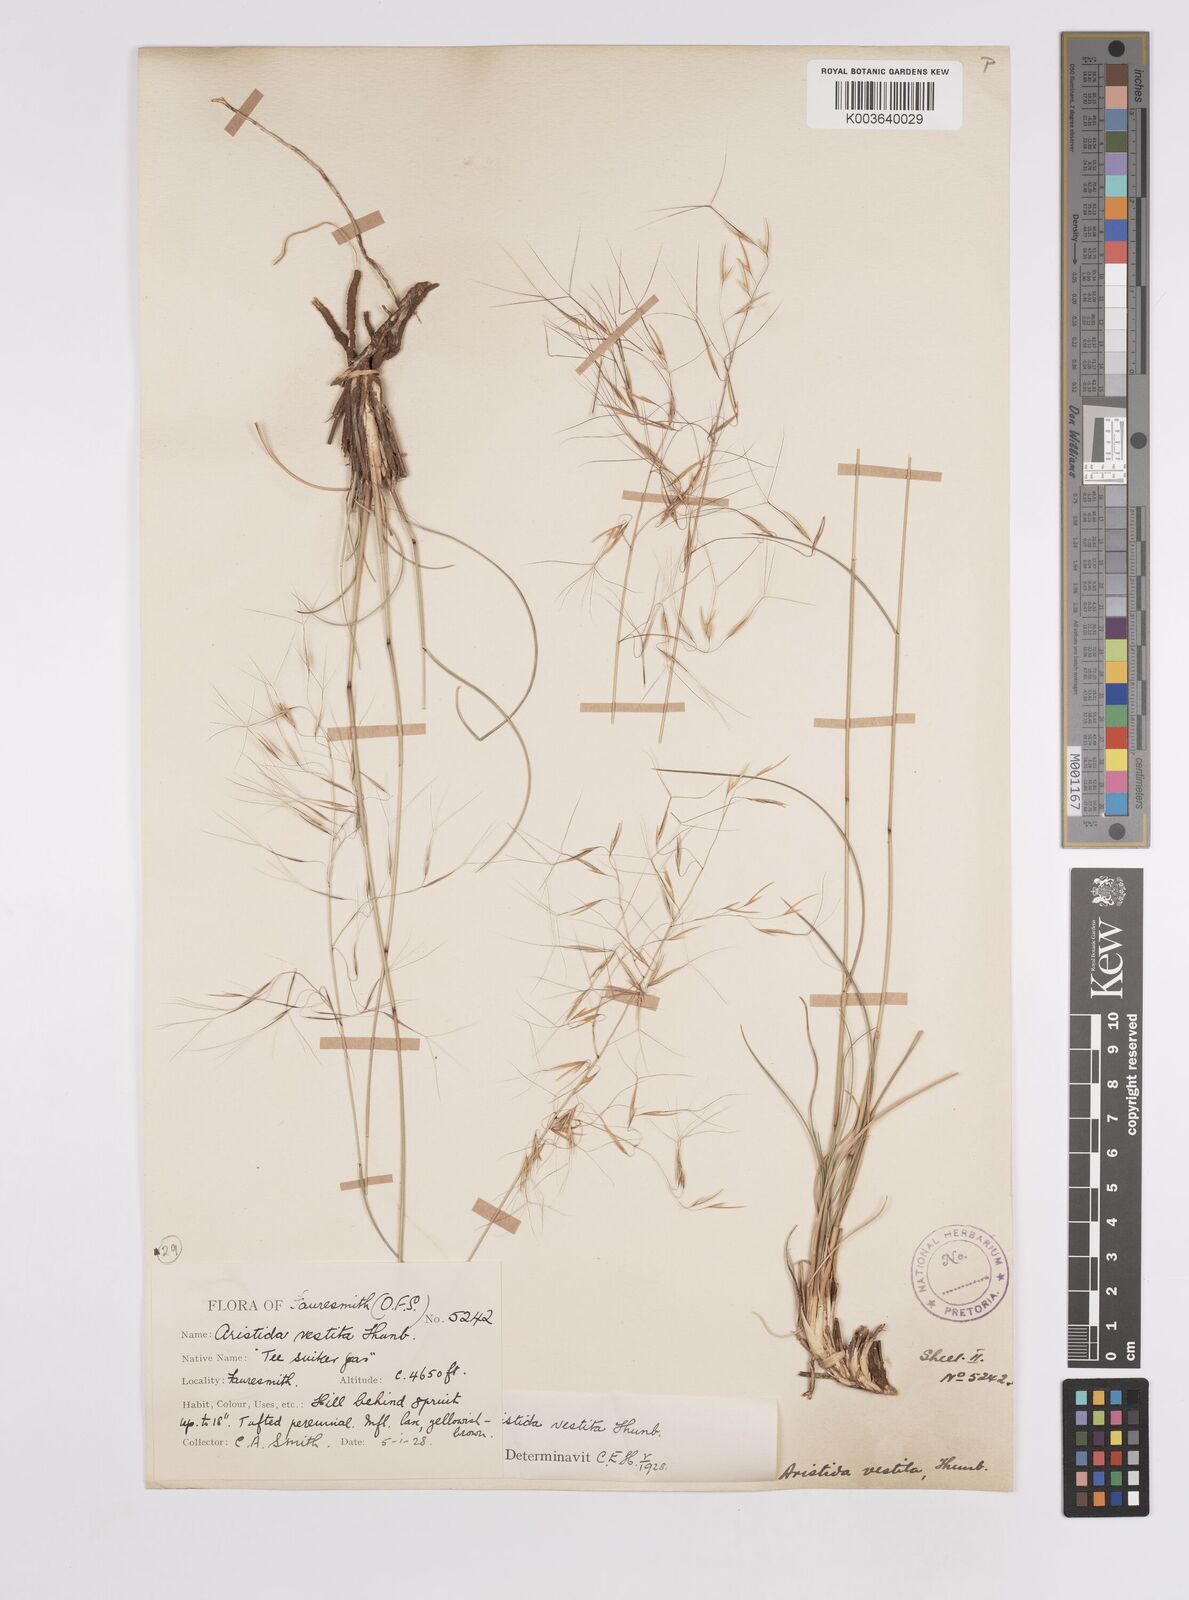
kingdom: Plantae
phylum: Tracheophyta
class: Liliopsida
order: Poales
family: Poaceae
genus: Aristida
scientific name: Aristida meridionalis
